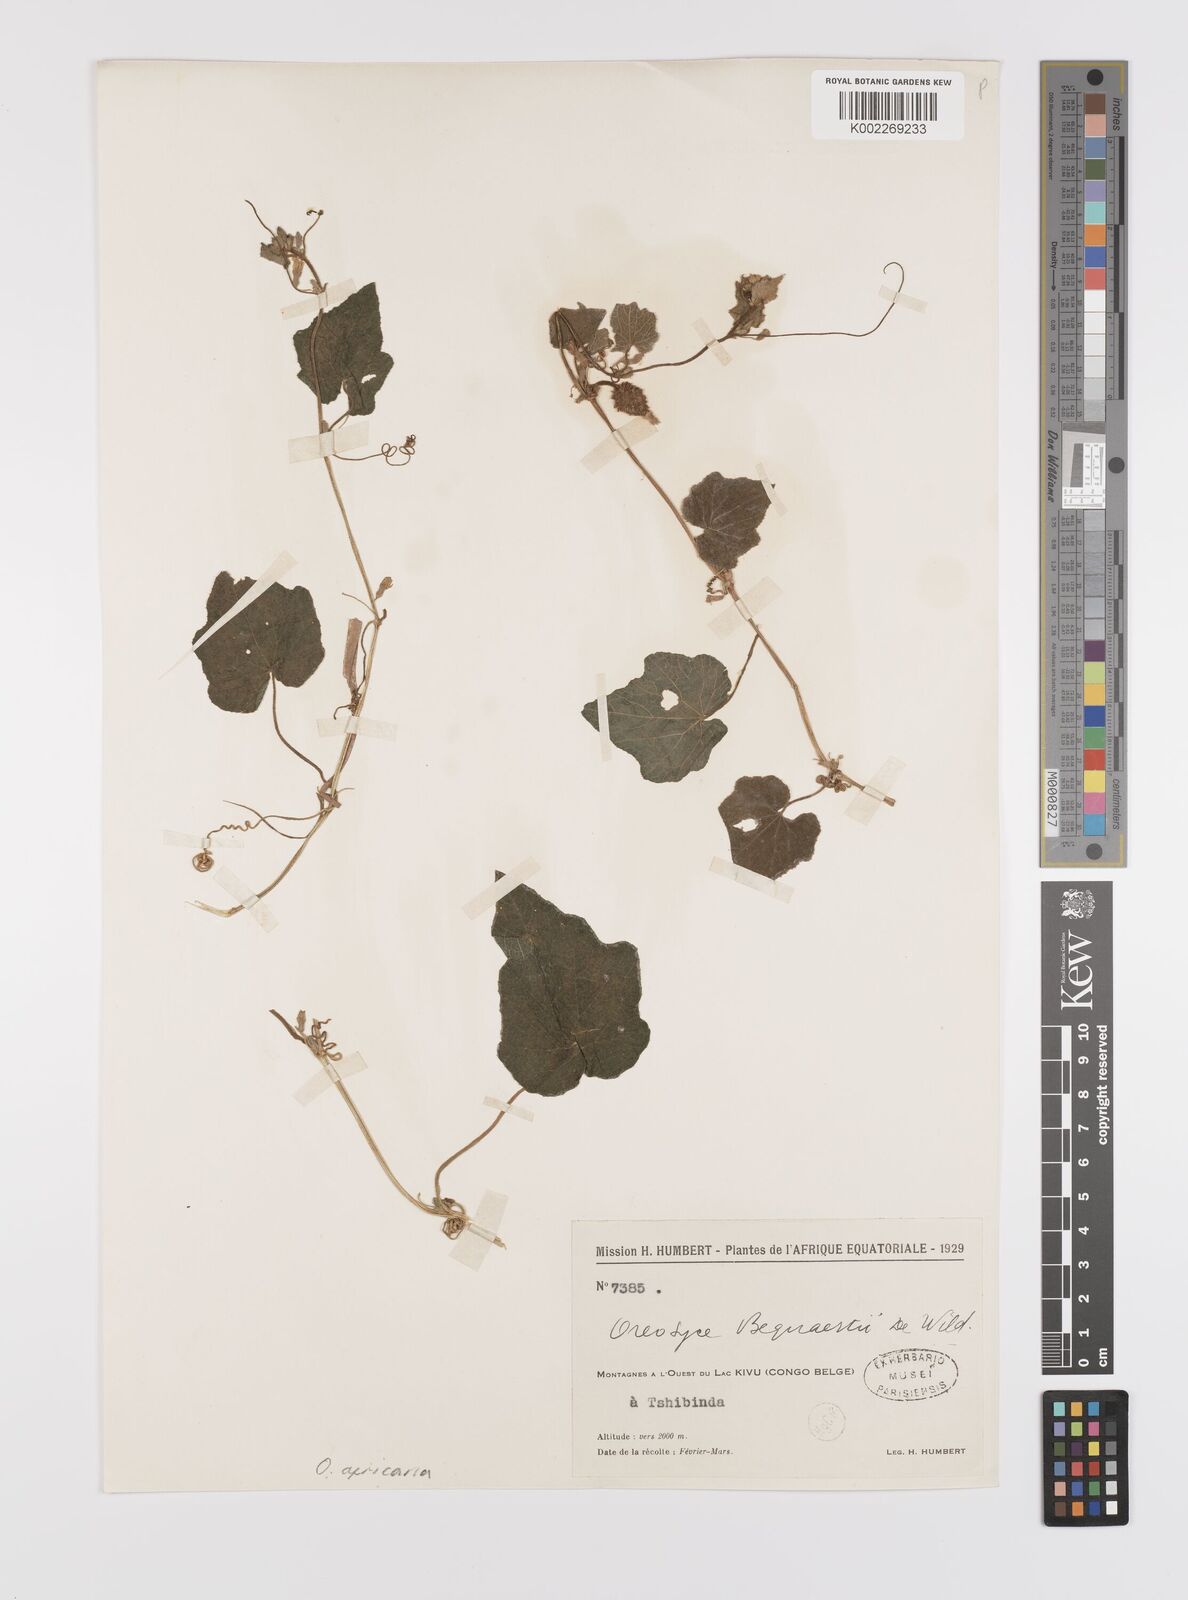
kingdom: Plantae
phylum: Tracheophyta
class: Magnoliopsida
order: Cucurbitales
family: Cucurbitaceae
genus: Cucumis
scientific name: Cucumis oreosyce
